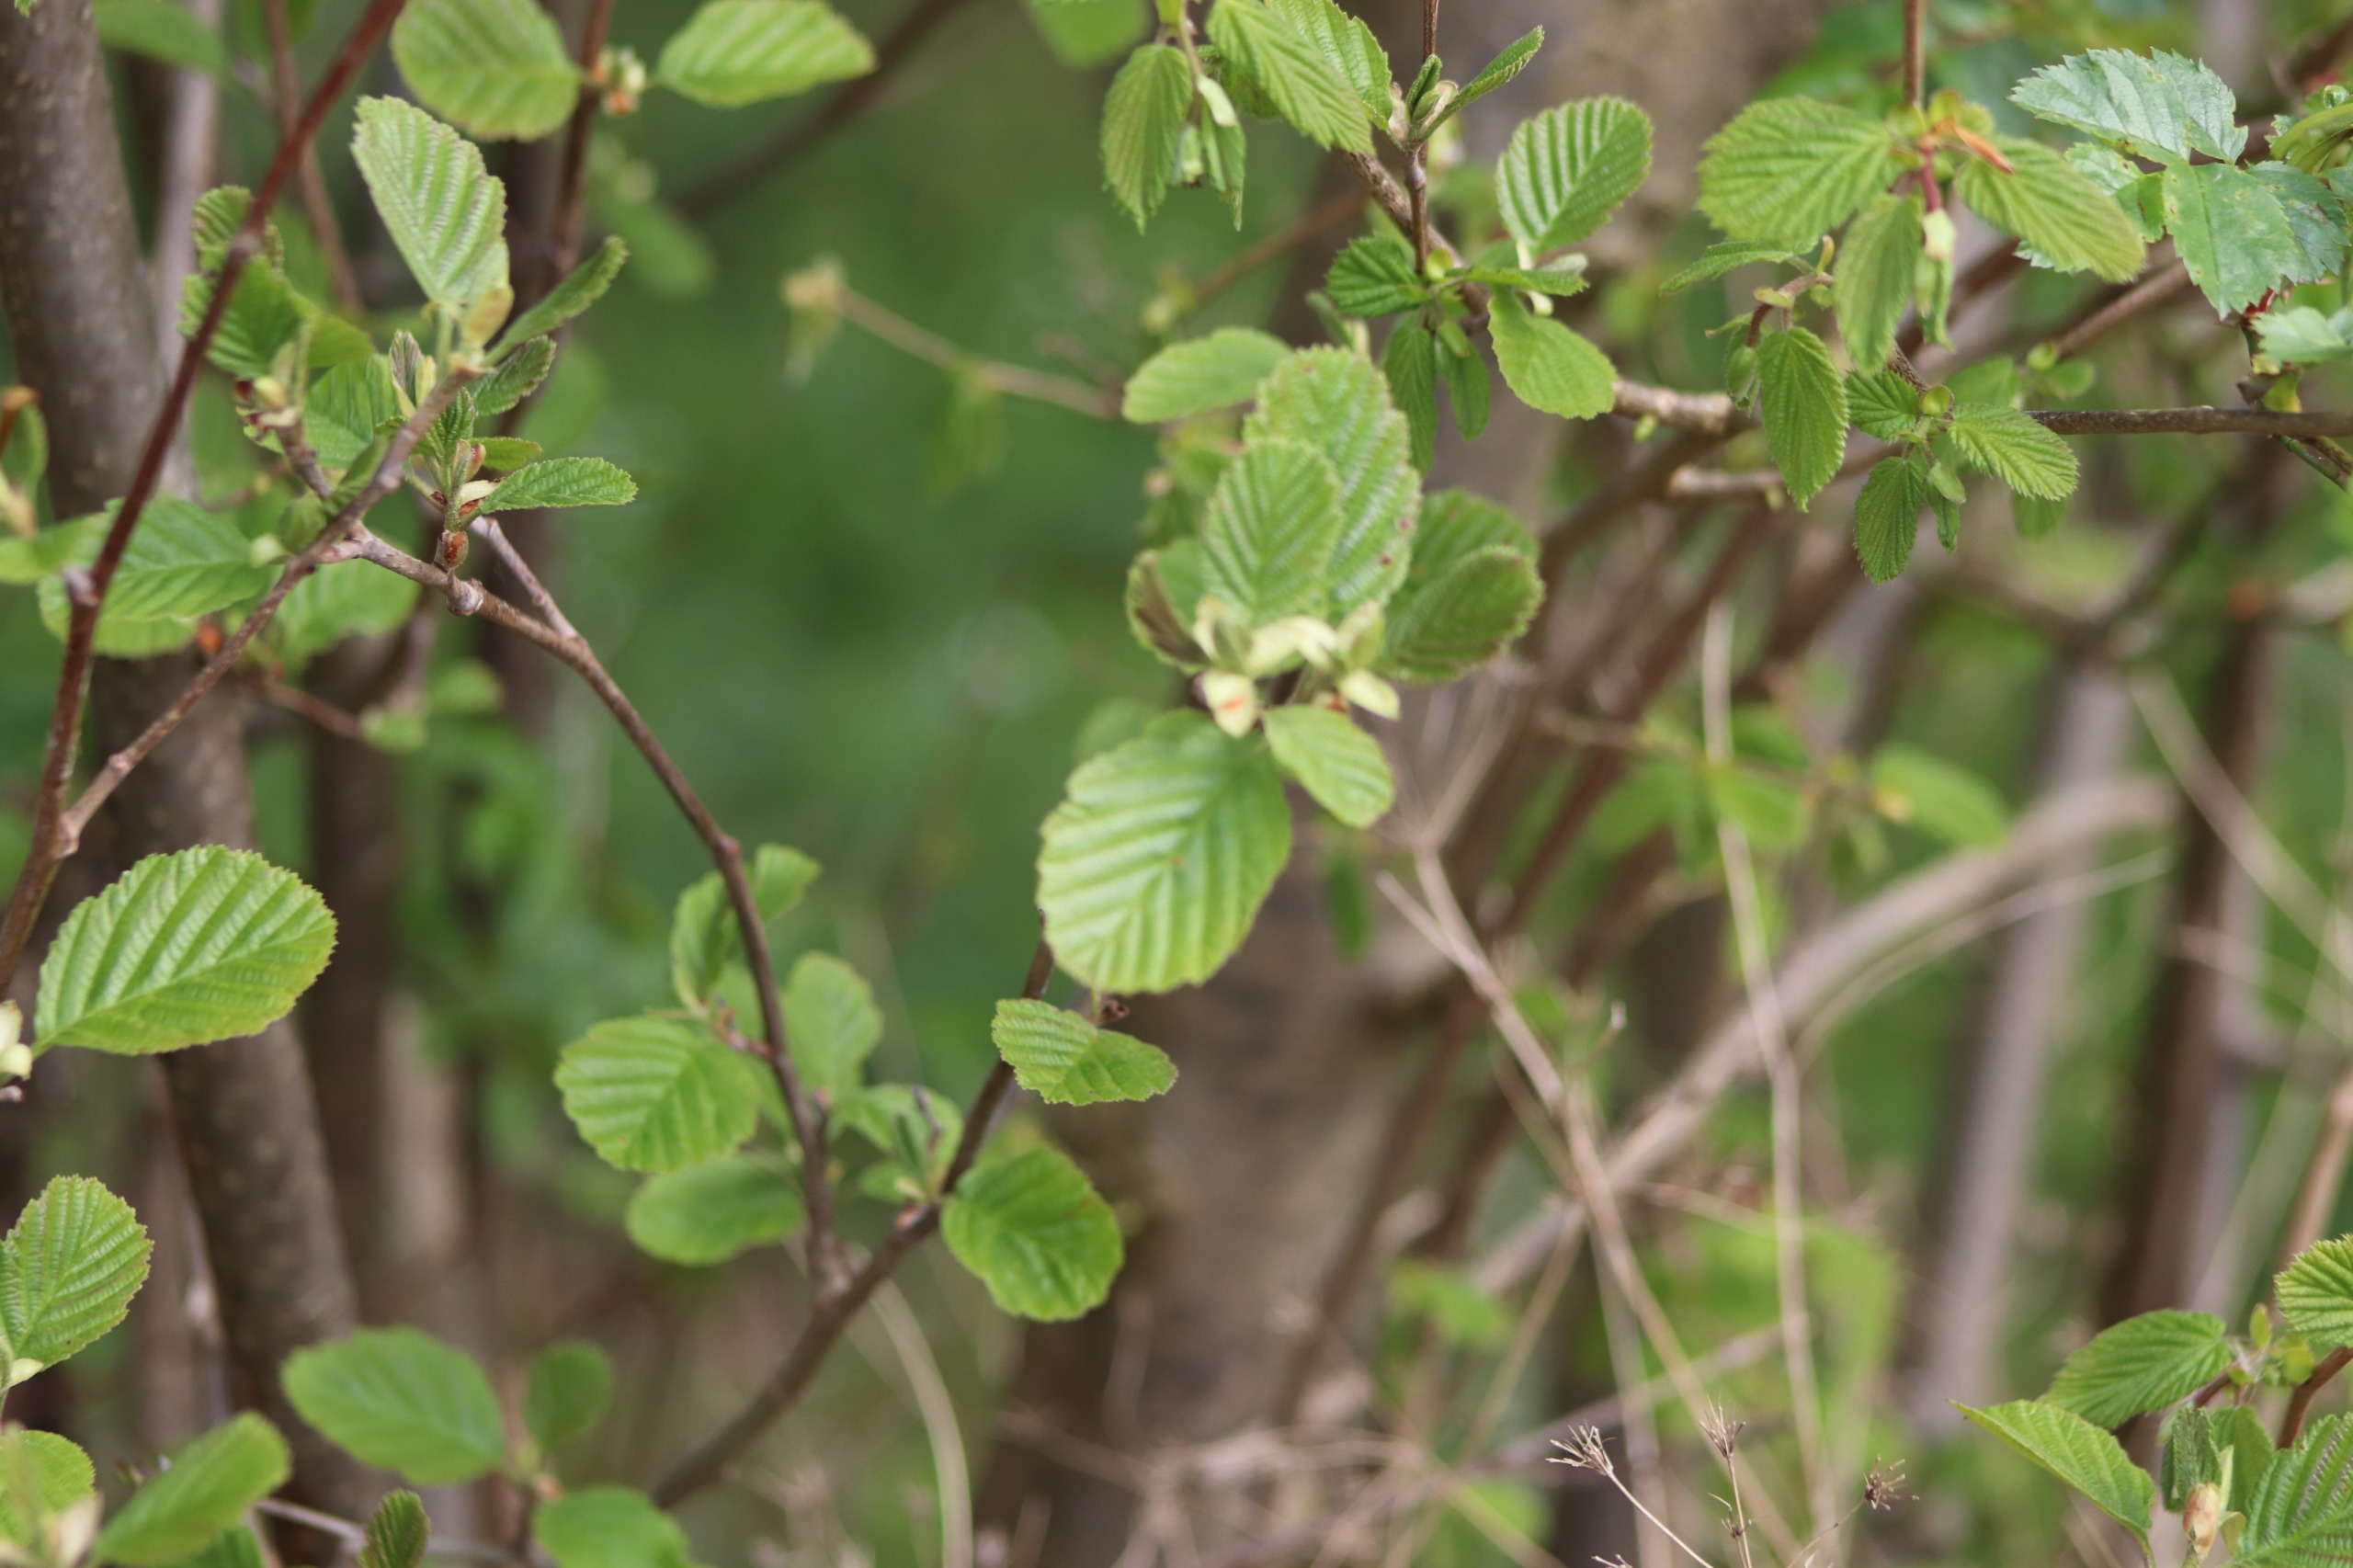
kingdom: Plantae
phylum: Tracheophyta
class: Magnoliopsida
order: Fagales
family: Betulaceae
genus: Alnus
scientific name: Alnus glutinosa
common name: Rød-el
